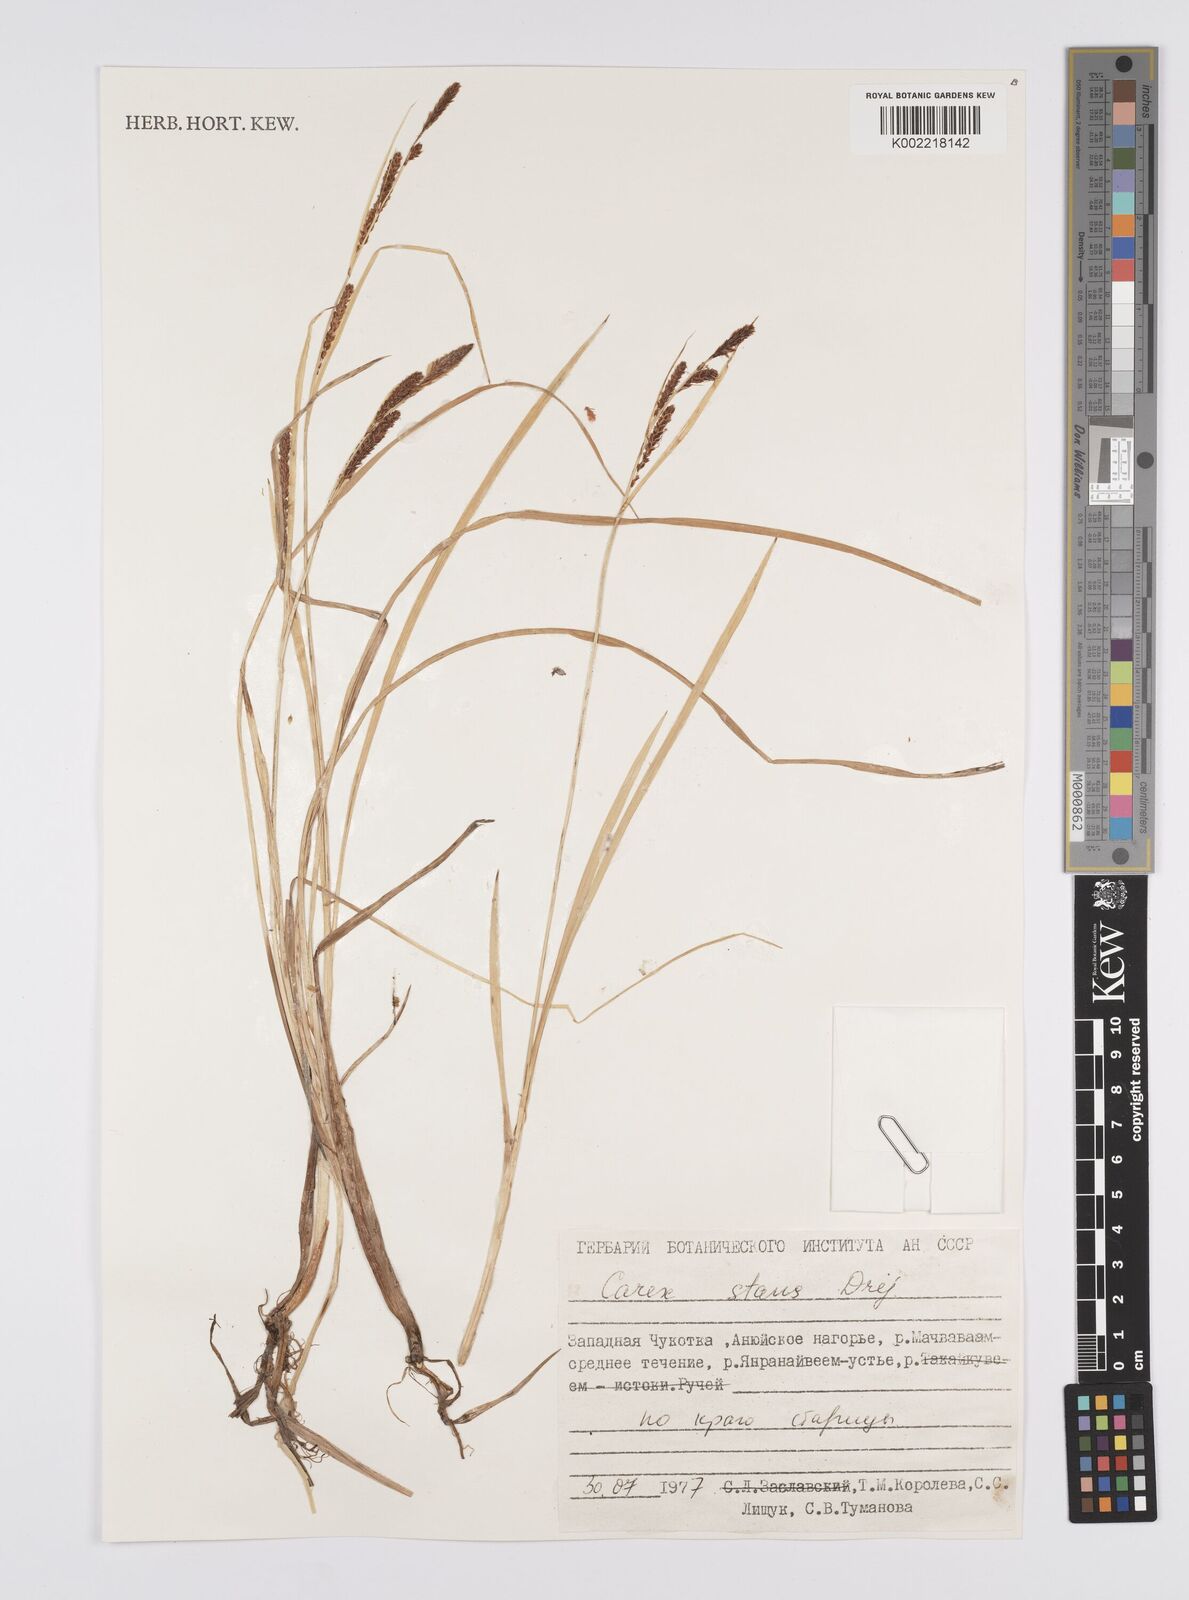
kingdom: Plantae
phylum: Tracheophyta
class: Liliopsida
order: Poales
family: Cyperaceae
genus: Carex
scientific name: Carex aquatilis
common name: Water sedge
